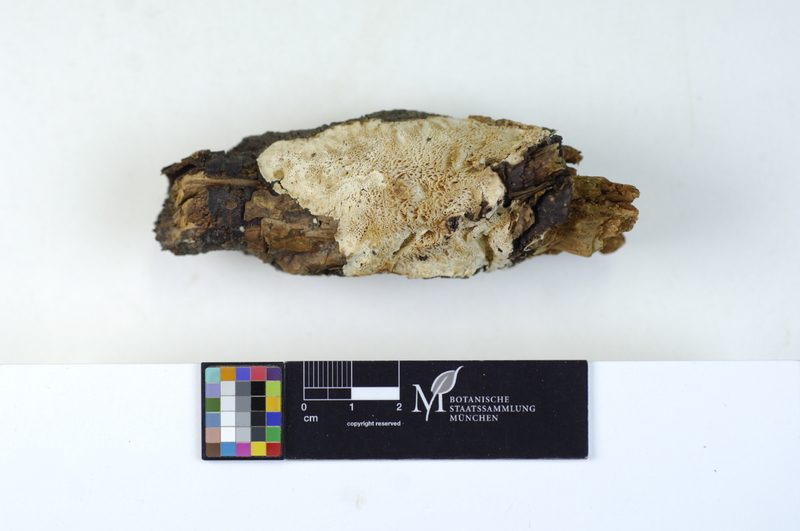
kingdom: Fungi
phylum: Basidiomycota
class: Agaricomycetes
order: Polyporales
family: Dacryobolaceae
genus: Osteina
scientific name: Osteina undosa
